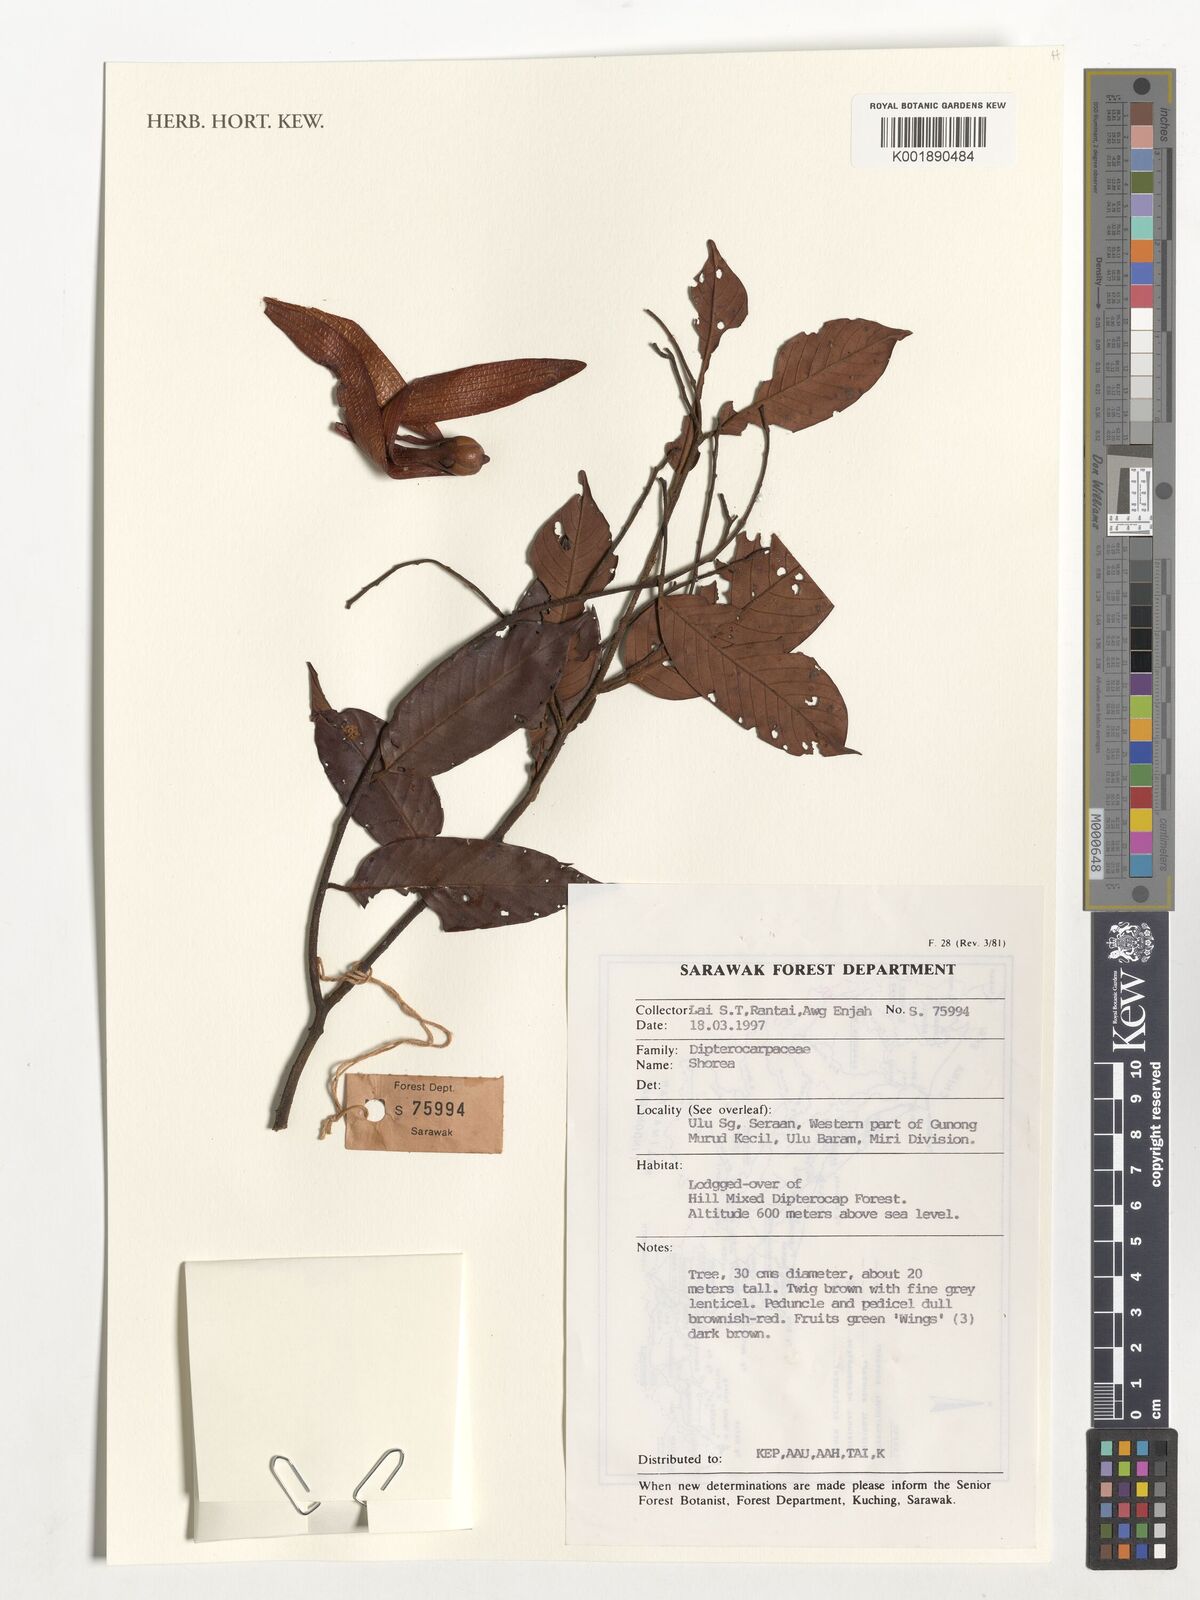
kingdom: Plantae
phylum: Tracheophyta
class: Magnoliopsida
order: Malvales
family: Dipterocarpaceae
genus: Shorea
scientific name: Shorea
